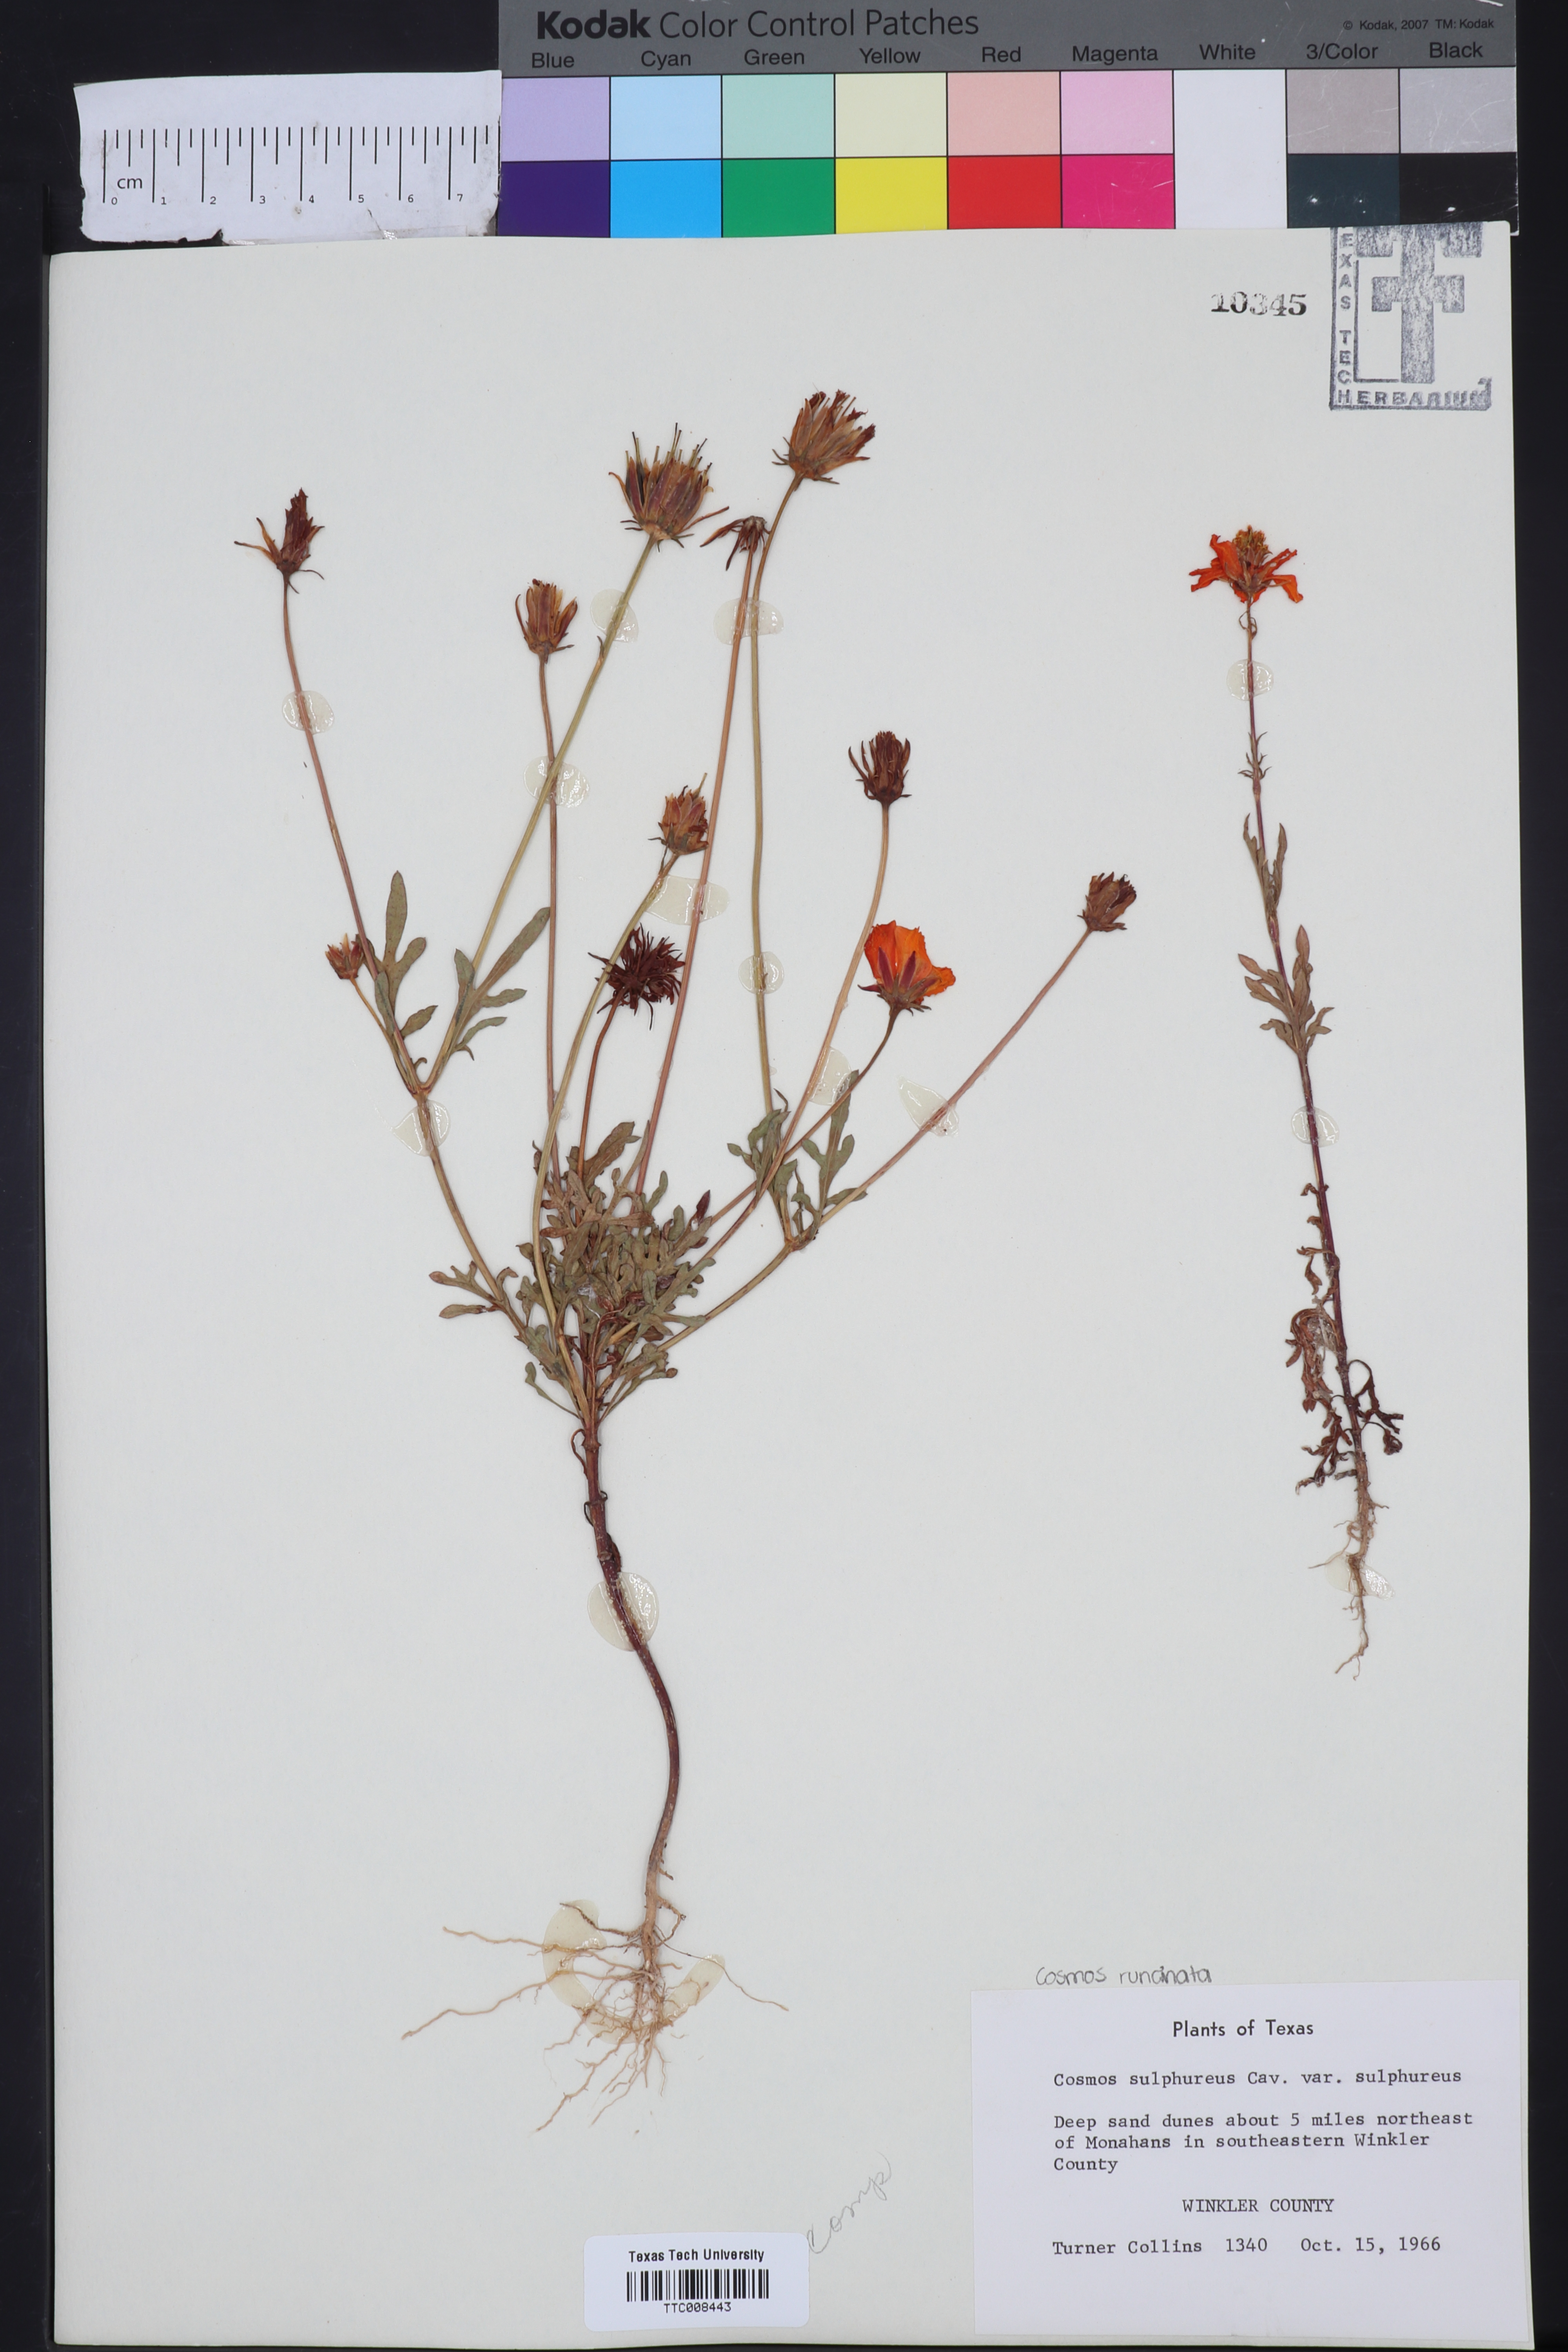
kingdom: Plantae
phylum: Tracheophyta
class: Magnoliopsida
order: Asterales
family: Asteraceae
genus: Cosmos
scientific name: Cosmos sulphureus
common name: Sulphur cosmos
